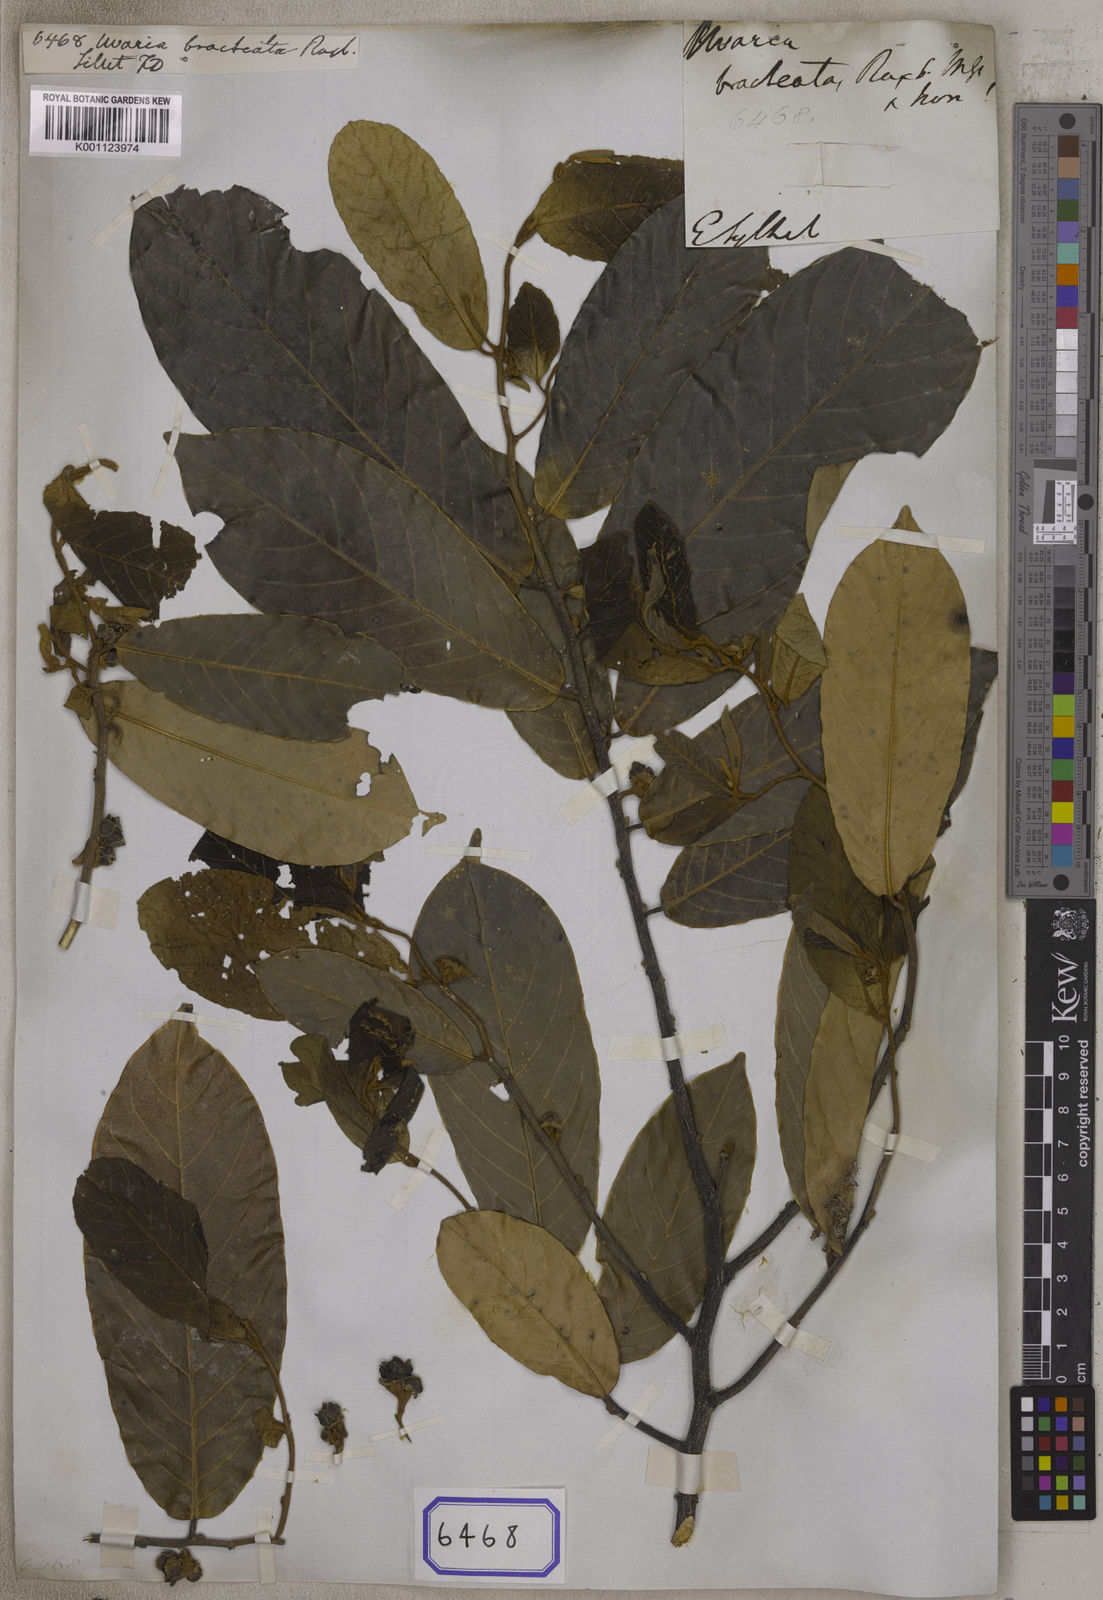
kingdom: Plantae
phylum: Tracheophyta
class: Magnoliopsida
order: Magnoliales
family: Annonaceae
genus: Uvaria
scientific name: Uvaria argentea
